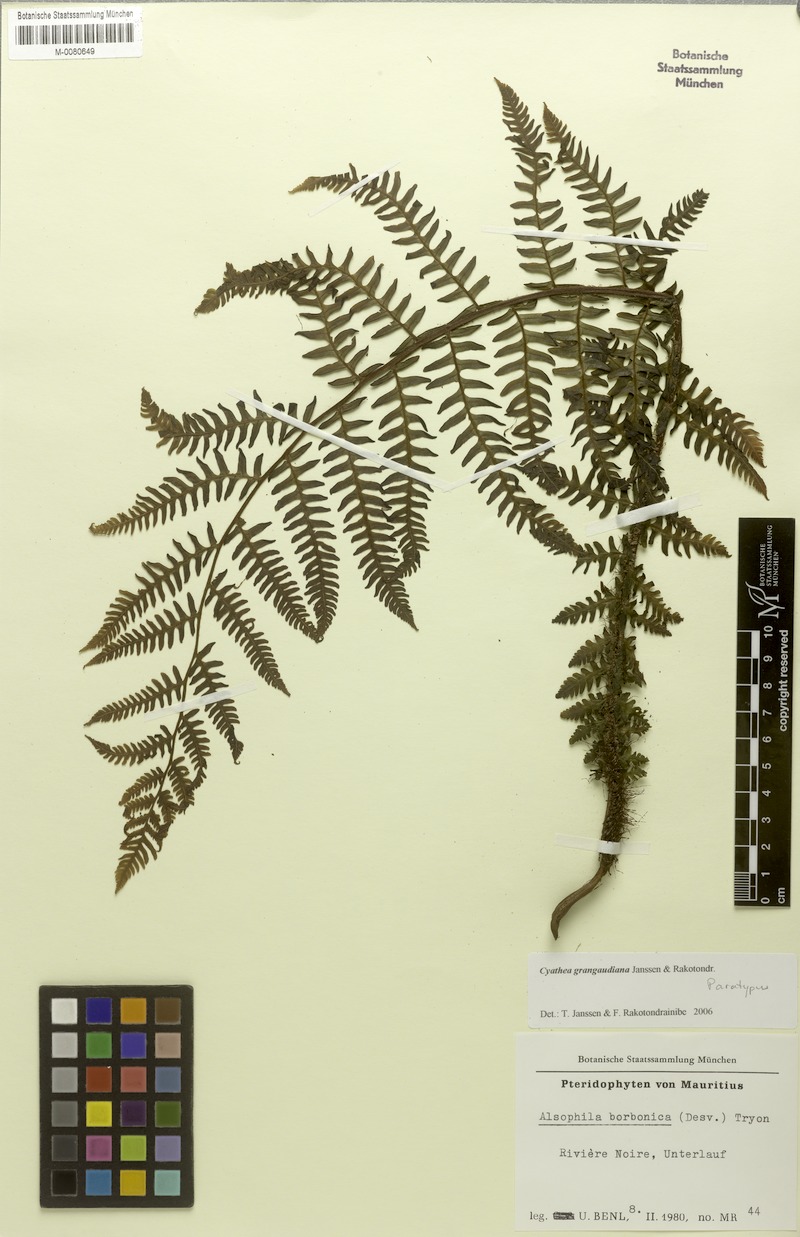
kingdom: Plantae
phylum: Tracheophyta
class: Polypodiopsida
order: Cyatheales
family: Cyatheaceae
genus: Alsophila
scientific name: Alsophila grangaudiana
